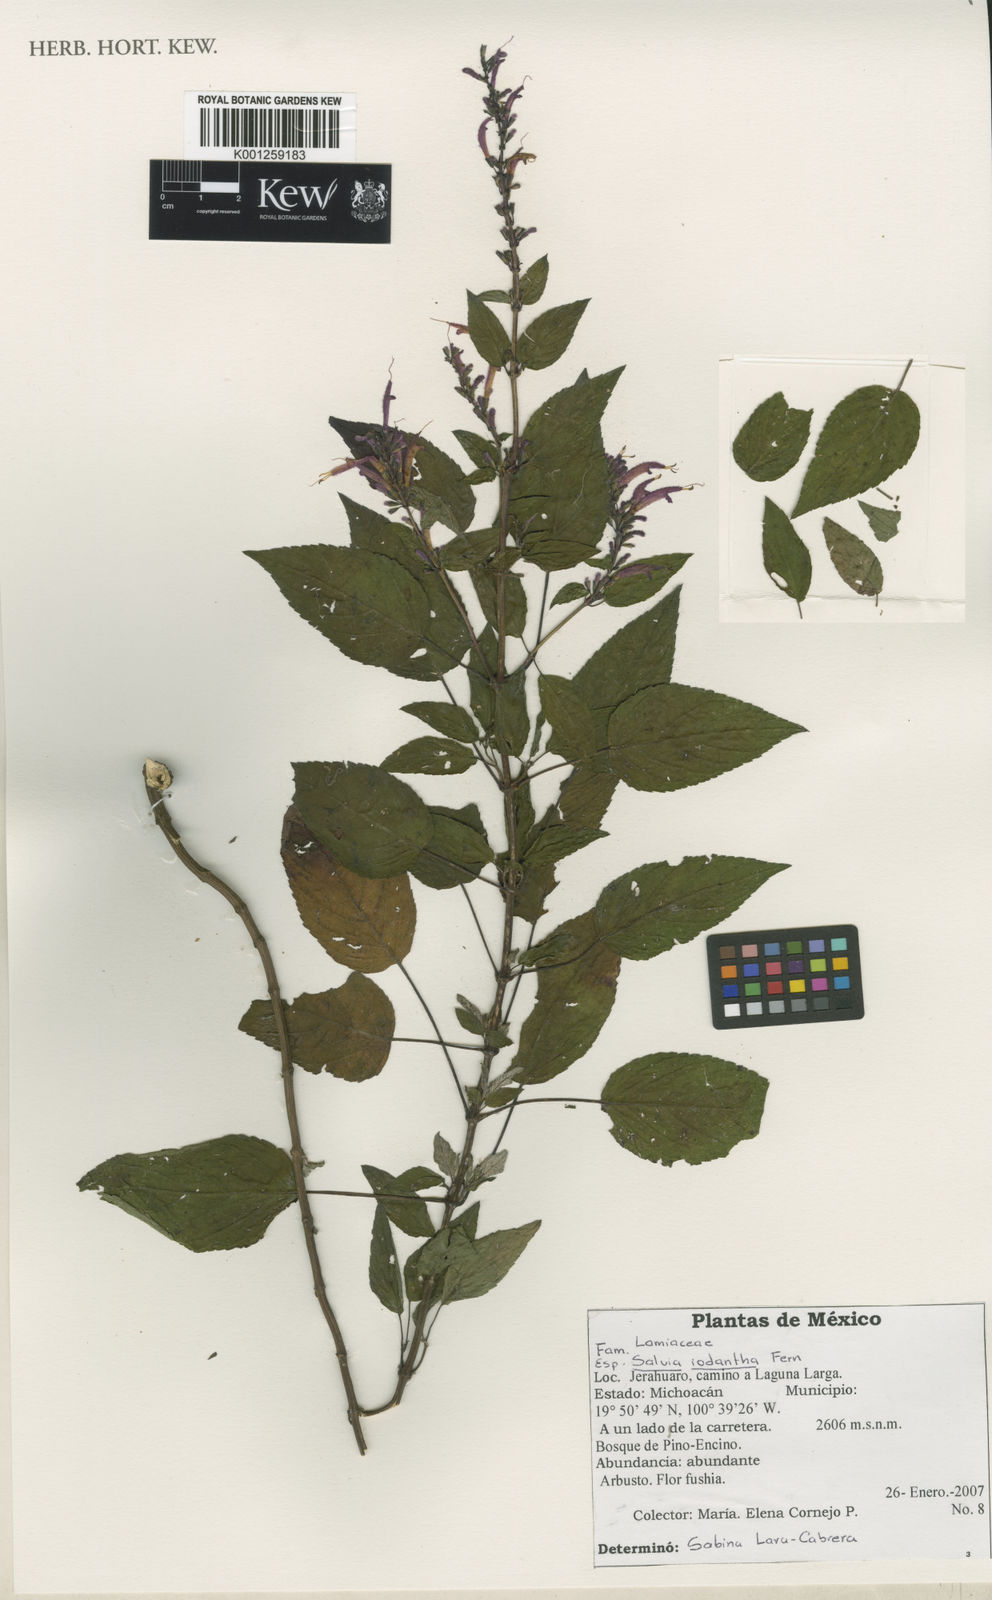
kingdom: Plantae
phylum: Tracheophyta
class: Magnoliopsida
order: Lamiales
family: Lamiaceae
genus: Salvia
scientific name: Salvia iodantha
